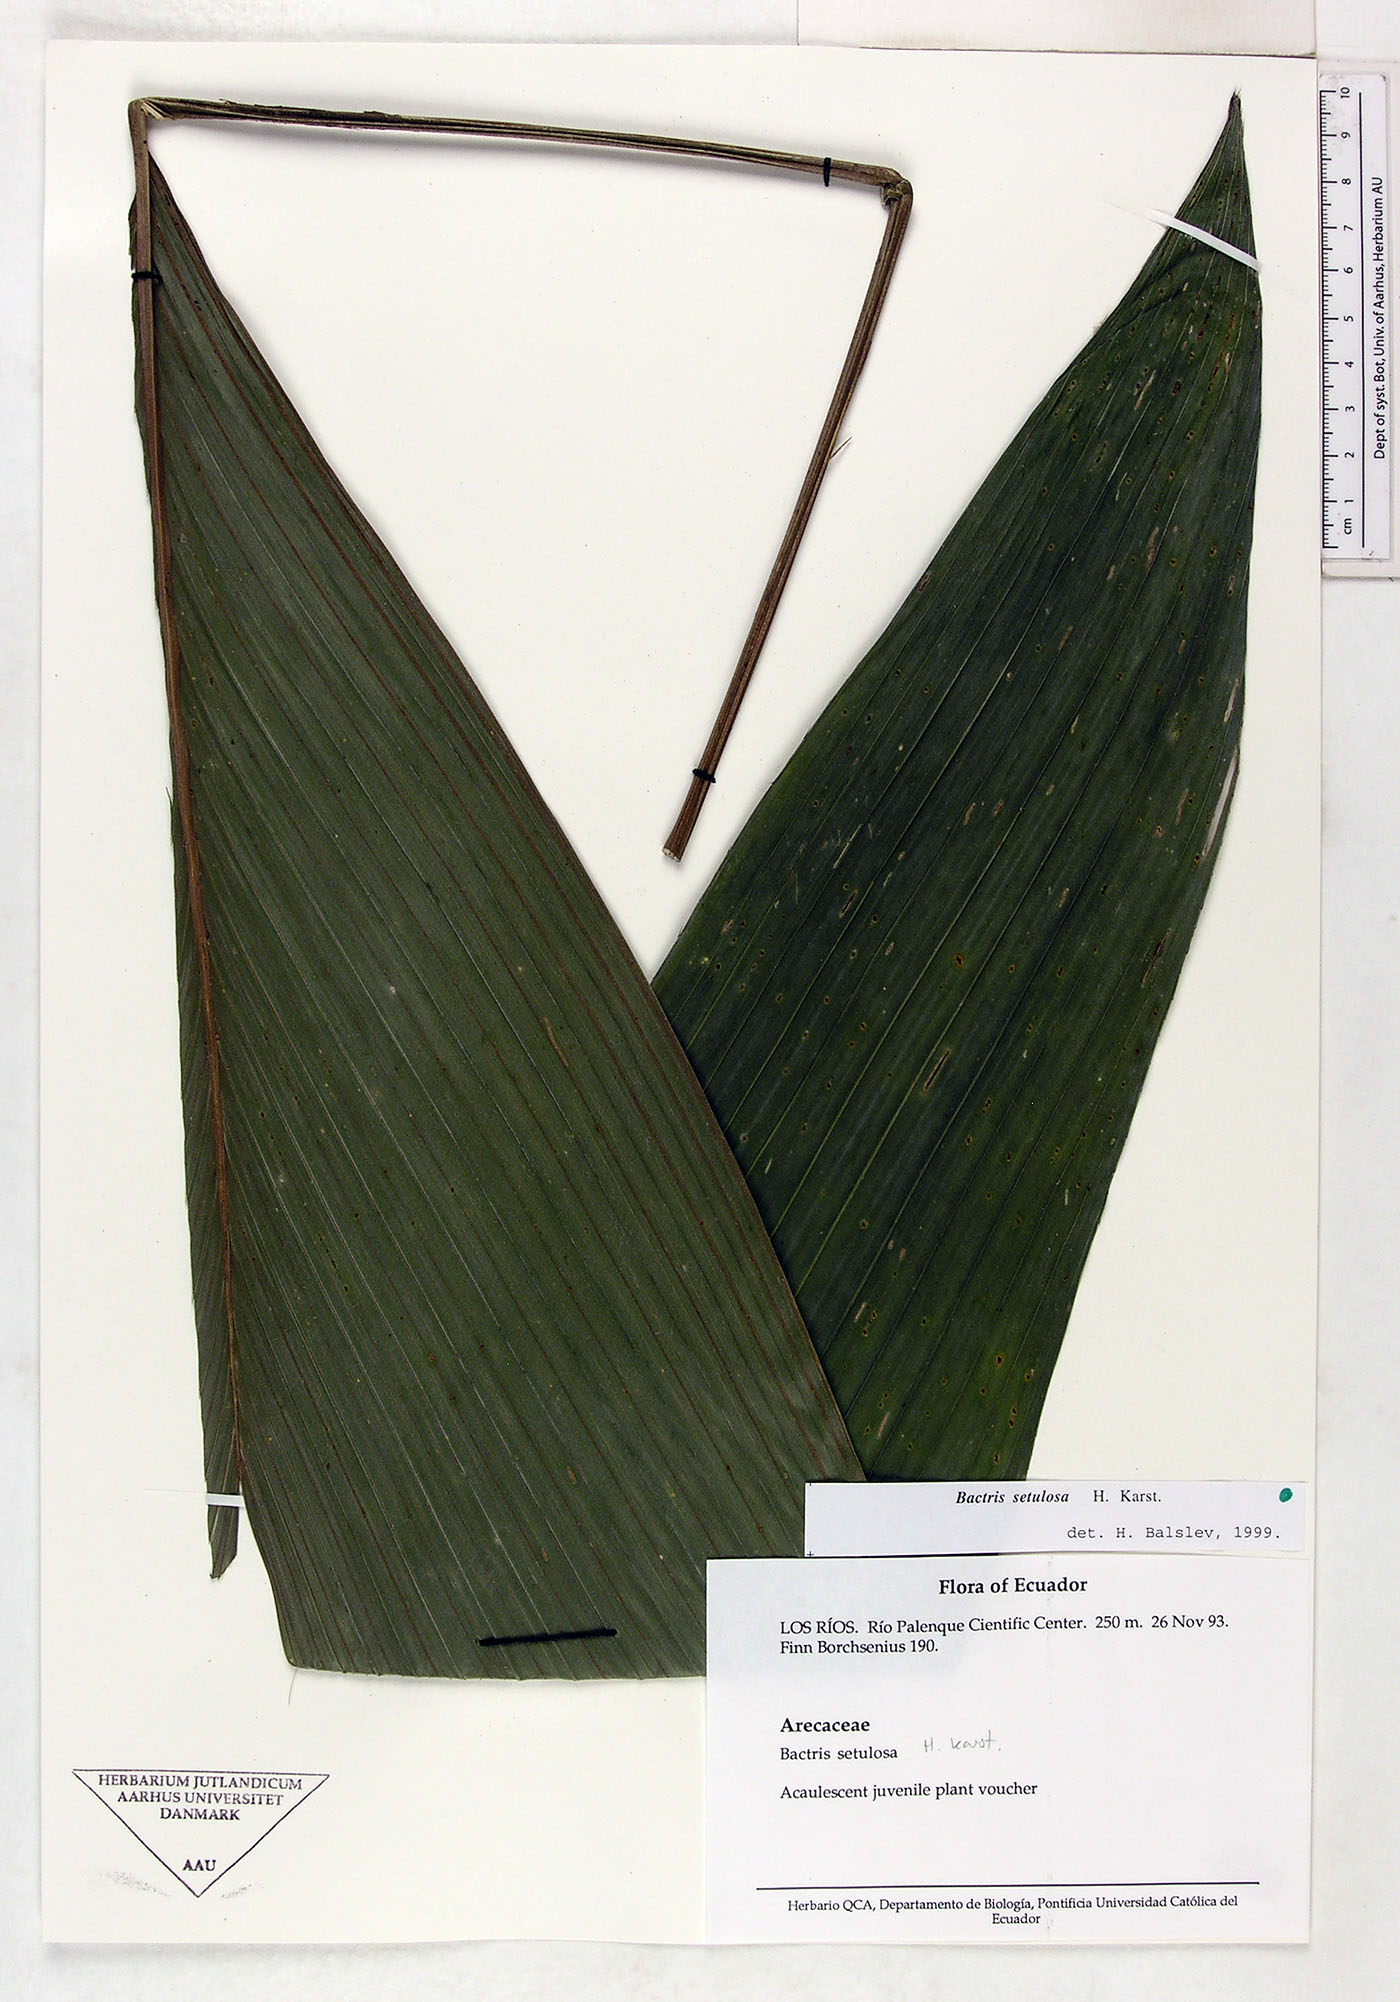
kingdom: Plantae
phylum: Tracheophyta
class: Liliopsida
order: Arecales
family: Arecaceae
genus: Bactris
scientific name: Bactris setulosa
